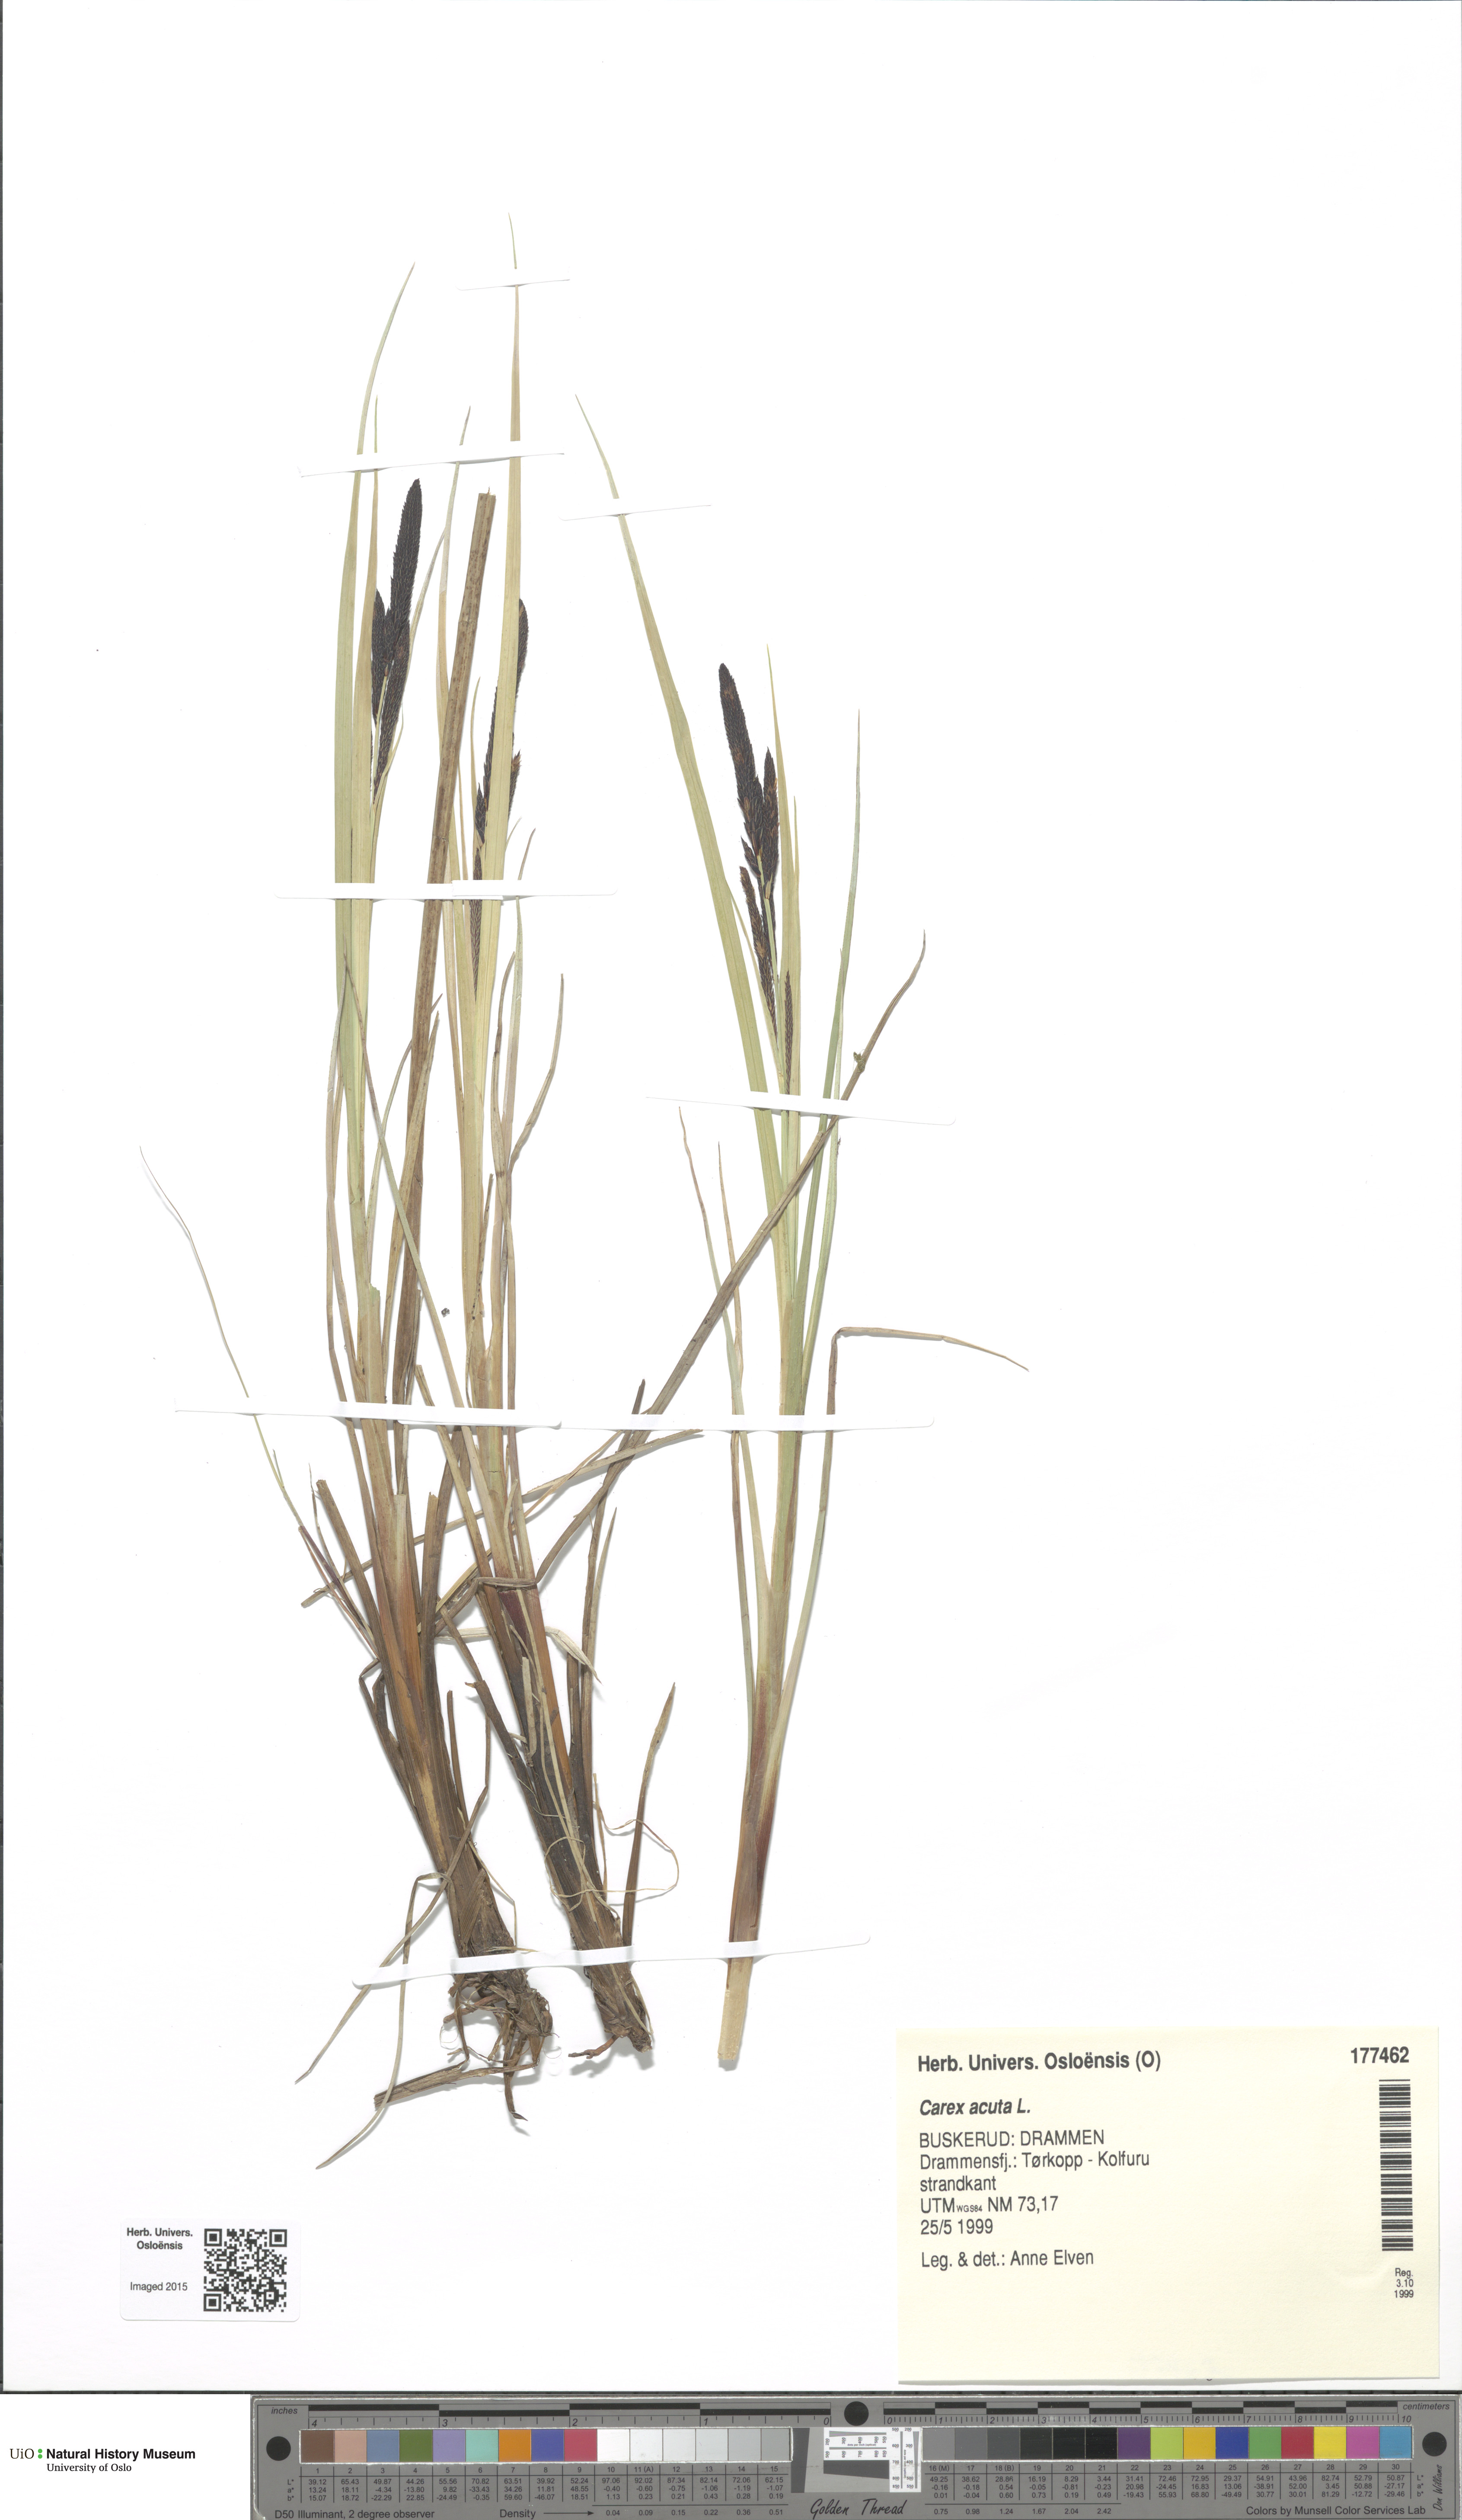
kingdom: Plantae
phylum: Tracheophyta
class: Liliopsida
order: Poales
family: Cyperaceae
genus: Carex
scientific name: Carex acuta
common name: Slender tufted-sedge
